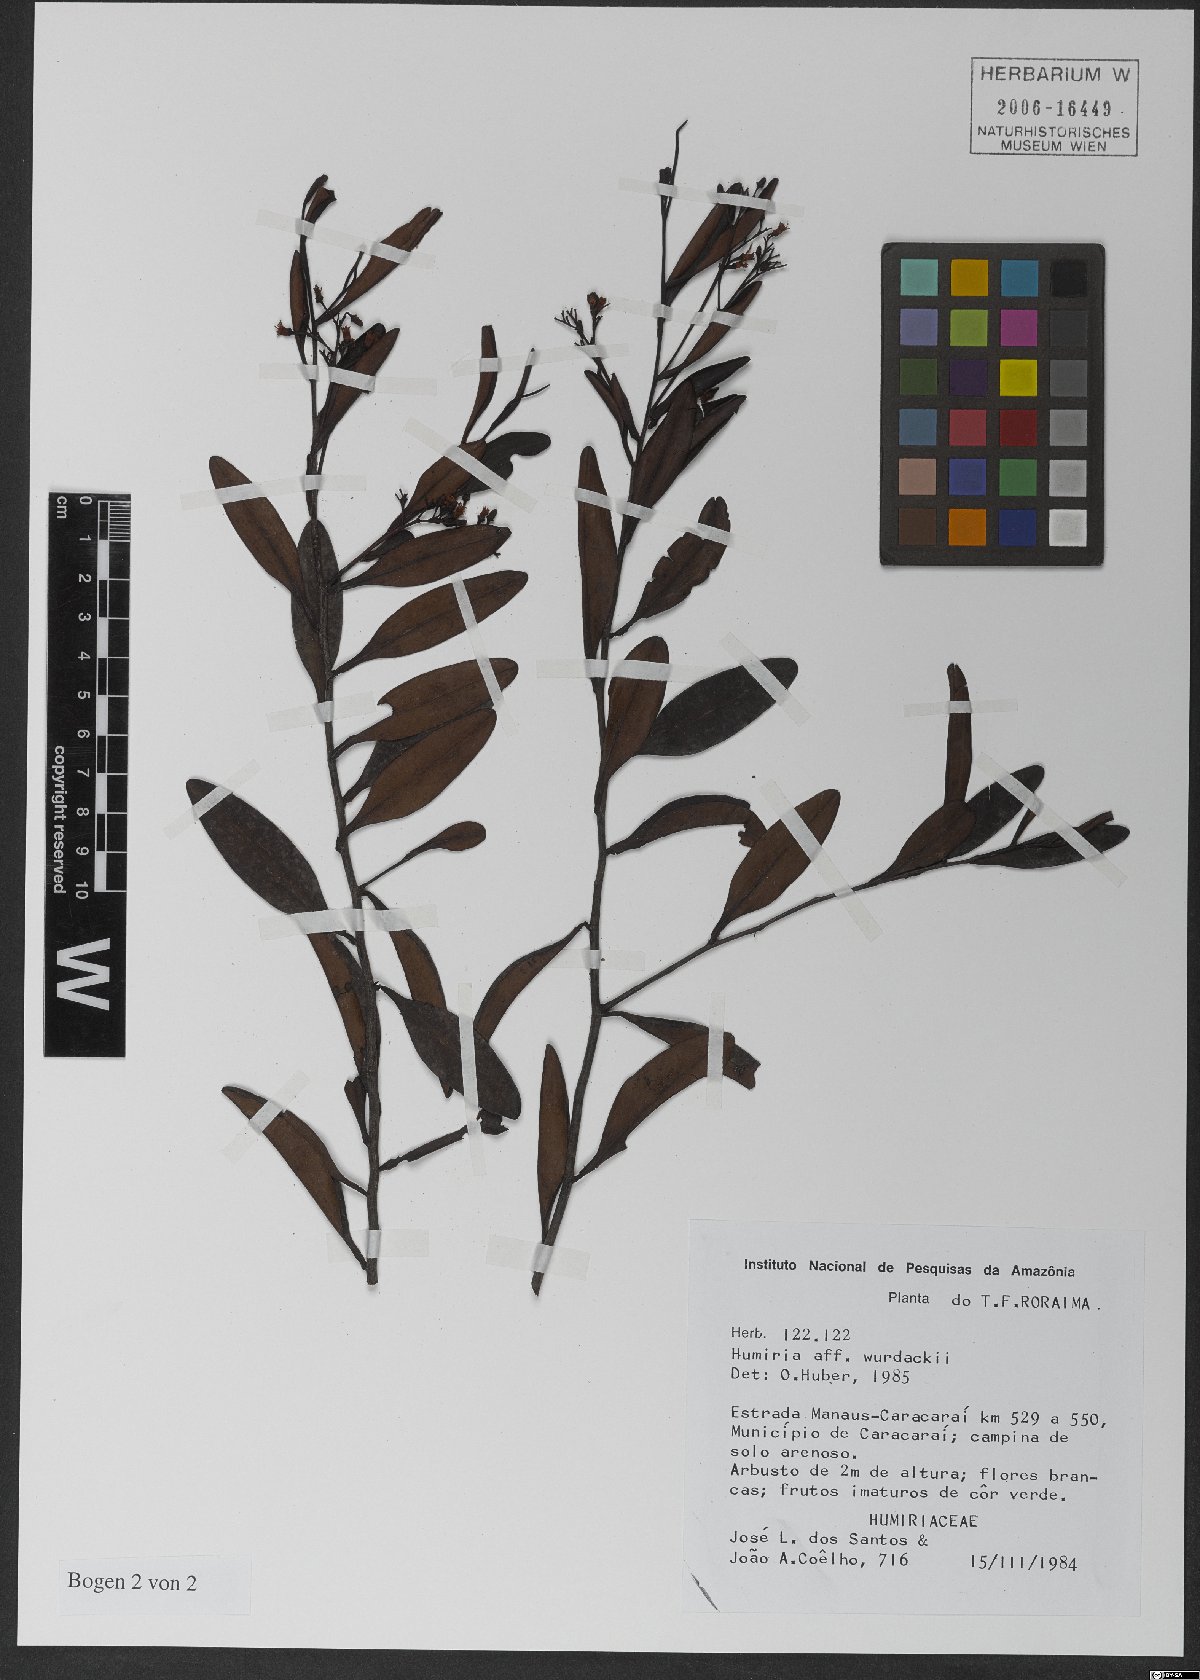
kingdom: Plantae
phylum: Tracheophyta
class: Magnoliopsida
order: Malpighiales
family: Humiriaceae
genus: Humiria
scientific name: Humiria wurdackii
